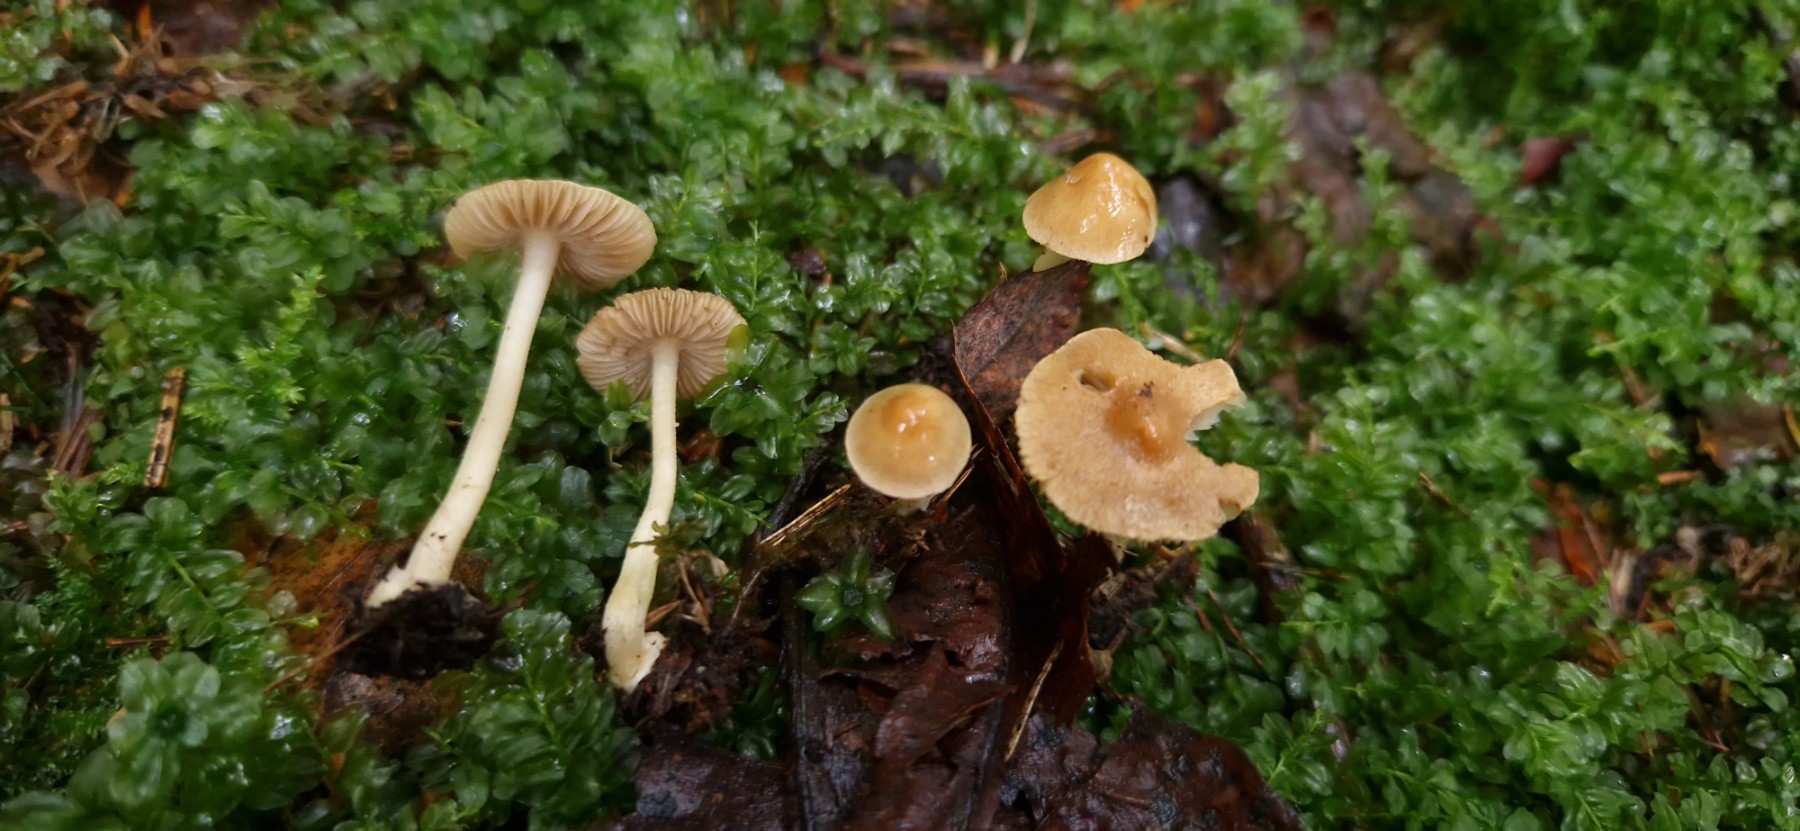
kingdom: Fungi
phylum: Basidiomycota
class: Agaricomycetes
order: Agaricales
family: Inocybaceae
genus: Inocybe
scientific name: Inocybe
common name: trævlhat
